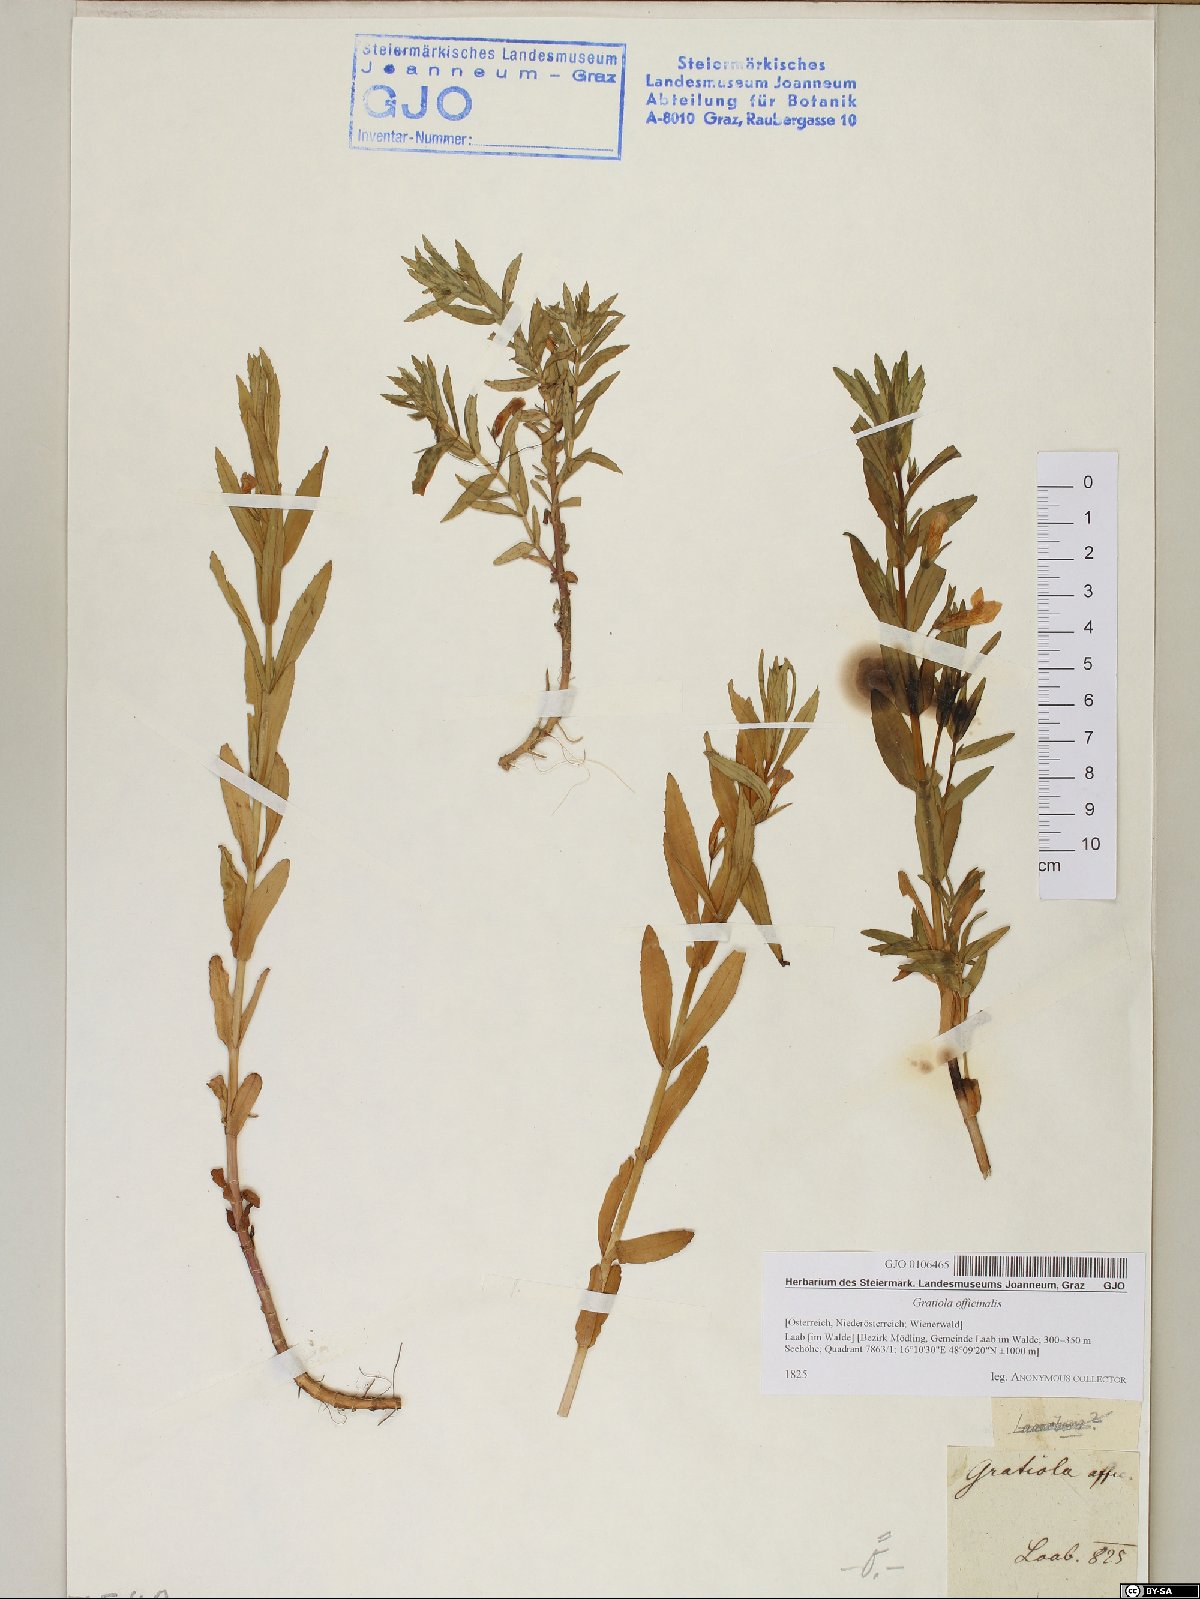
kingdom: Plantae
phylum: Tracheophyta
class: Magnoliopsida
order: Lamiales
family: Plantaginaceae
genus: Gratiola
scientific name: Gratiola officinalis
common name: Gratiola
